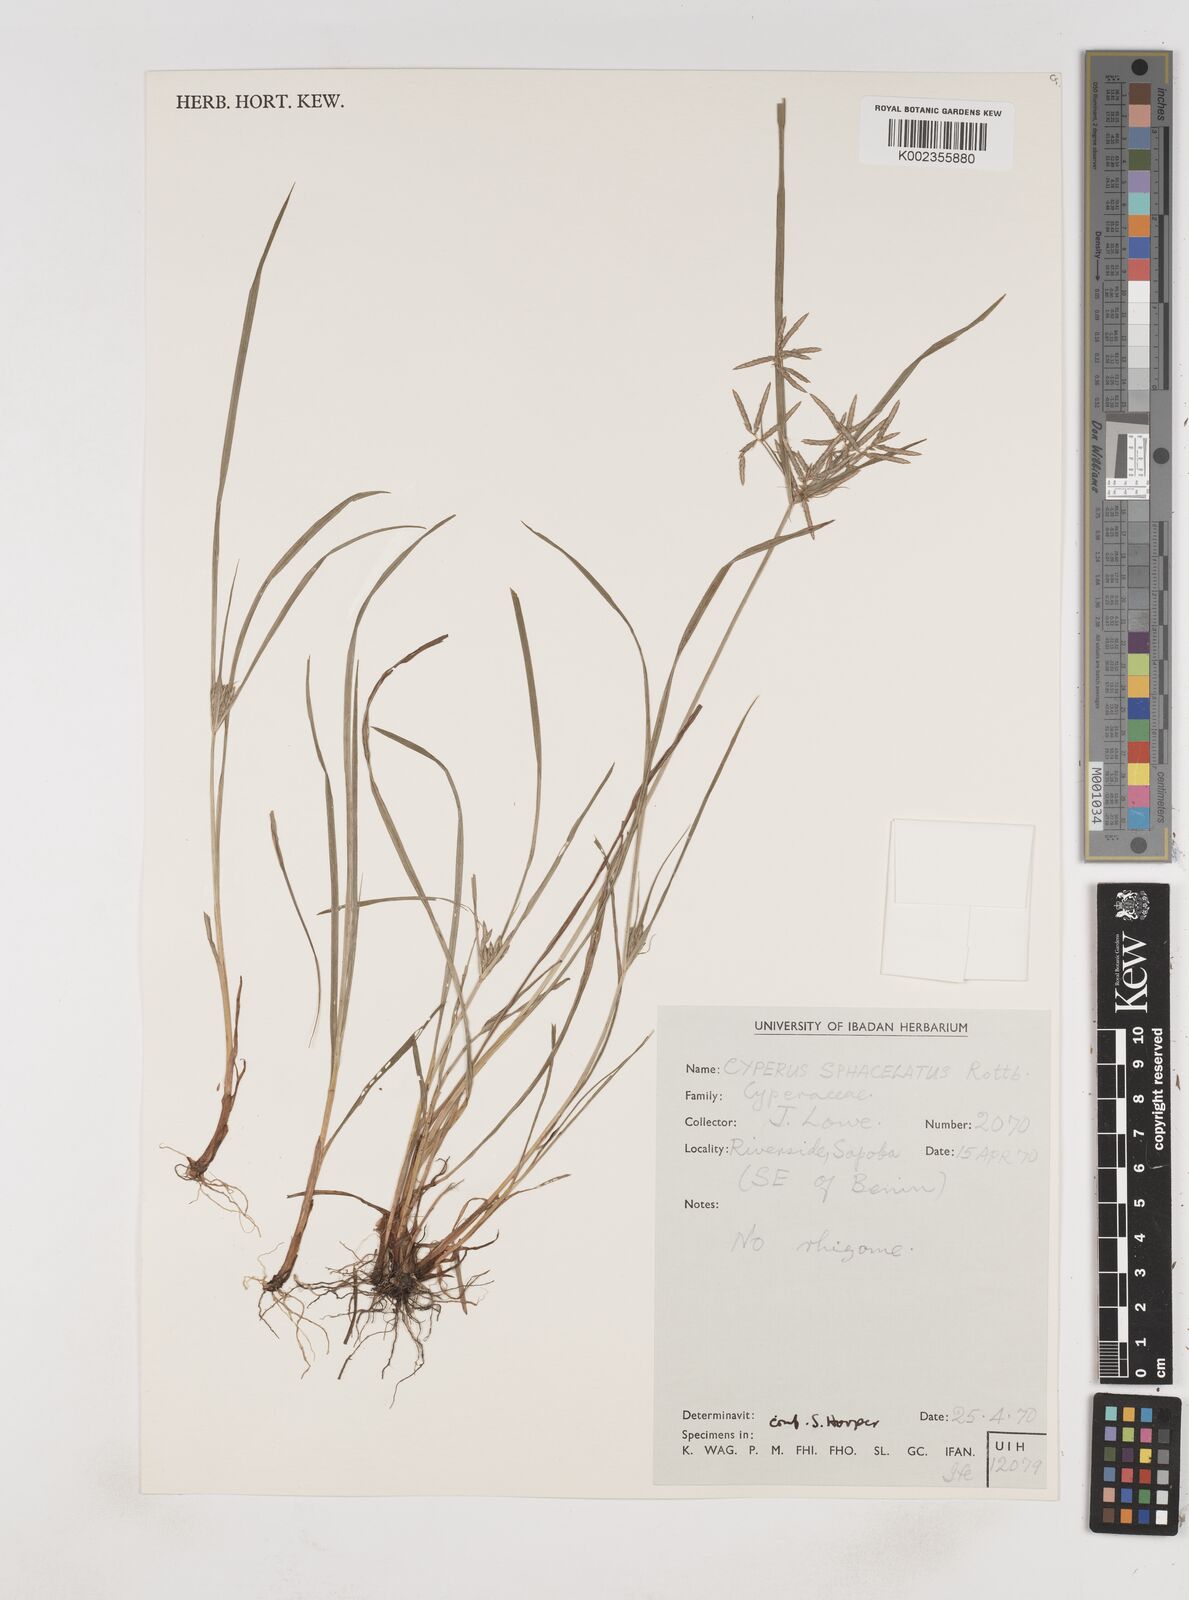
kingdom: Plantae
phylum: Tracheophyta
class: Liliopsida
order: Poales
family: Cyperaceae
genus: Cyperus
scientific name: Cyperus sphacelatus
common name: Roadside flatsedge
